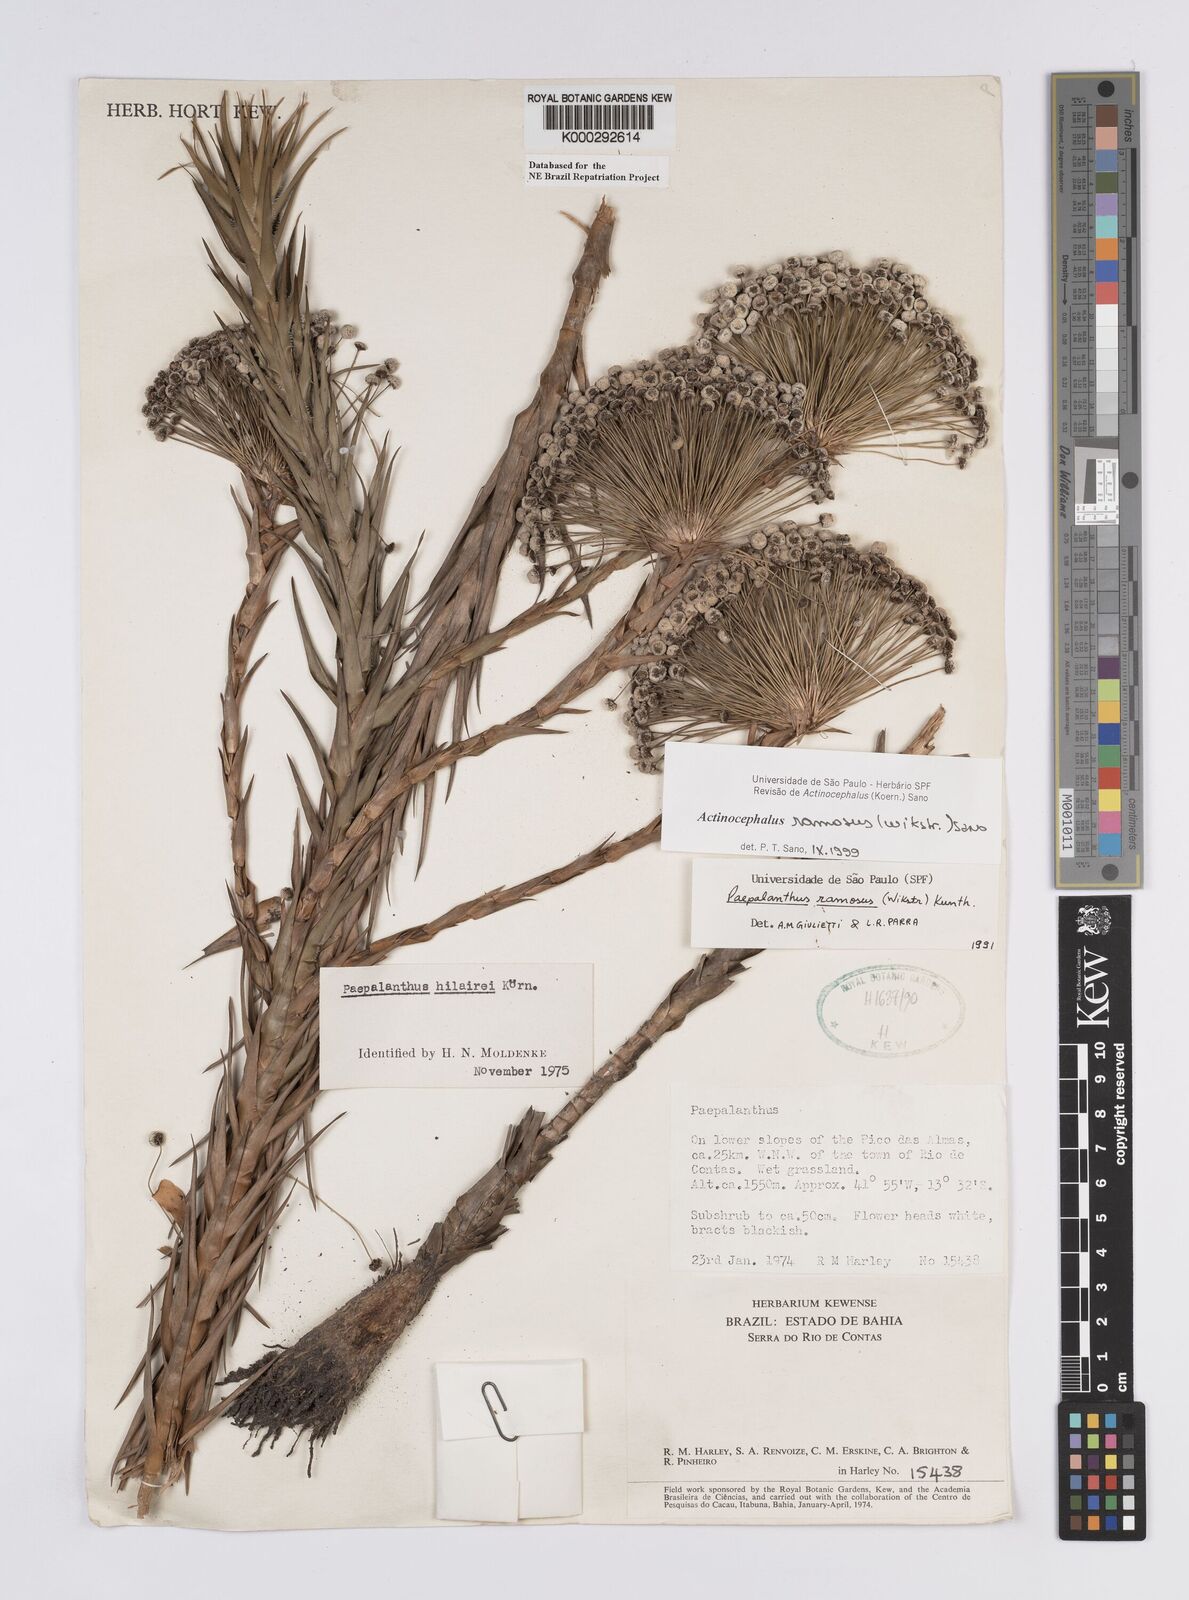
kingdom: Plantae
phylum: Tracheophyta
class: Liliopsida
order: Poales
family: Eriocaulaceae
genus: Paepalanthus
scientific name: Paepalanthus ramosus
